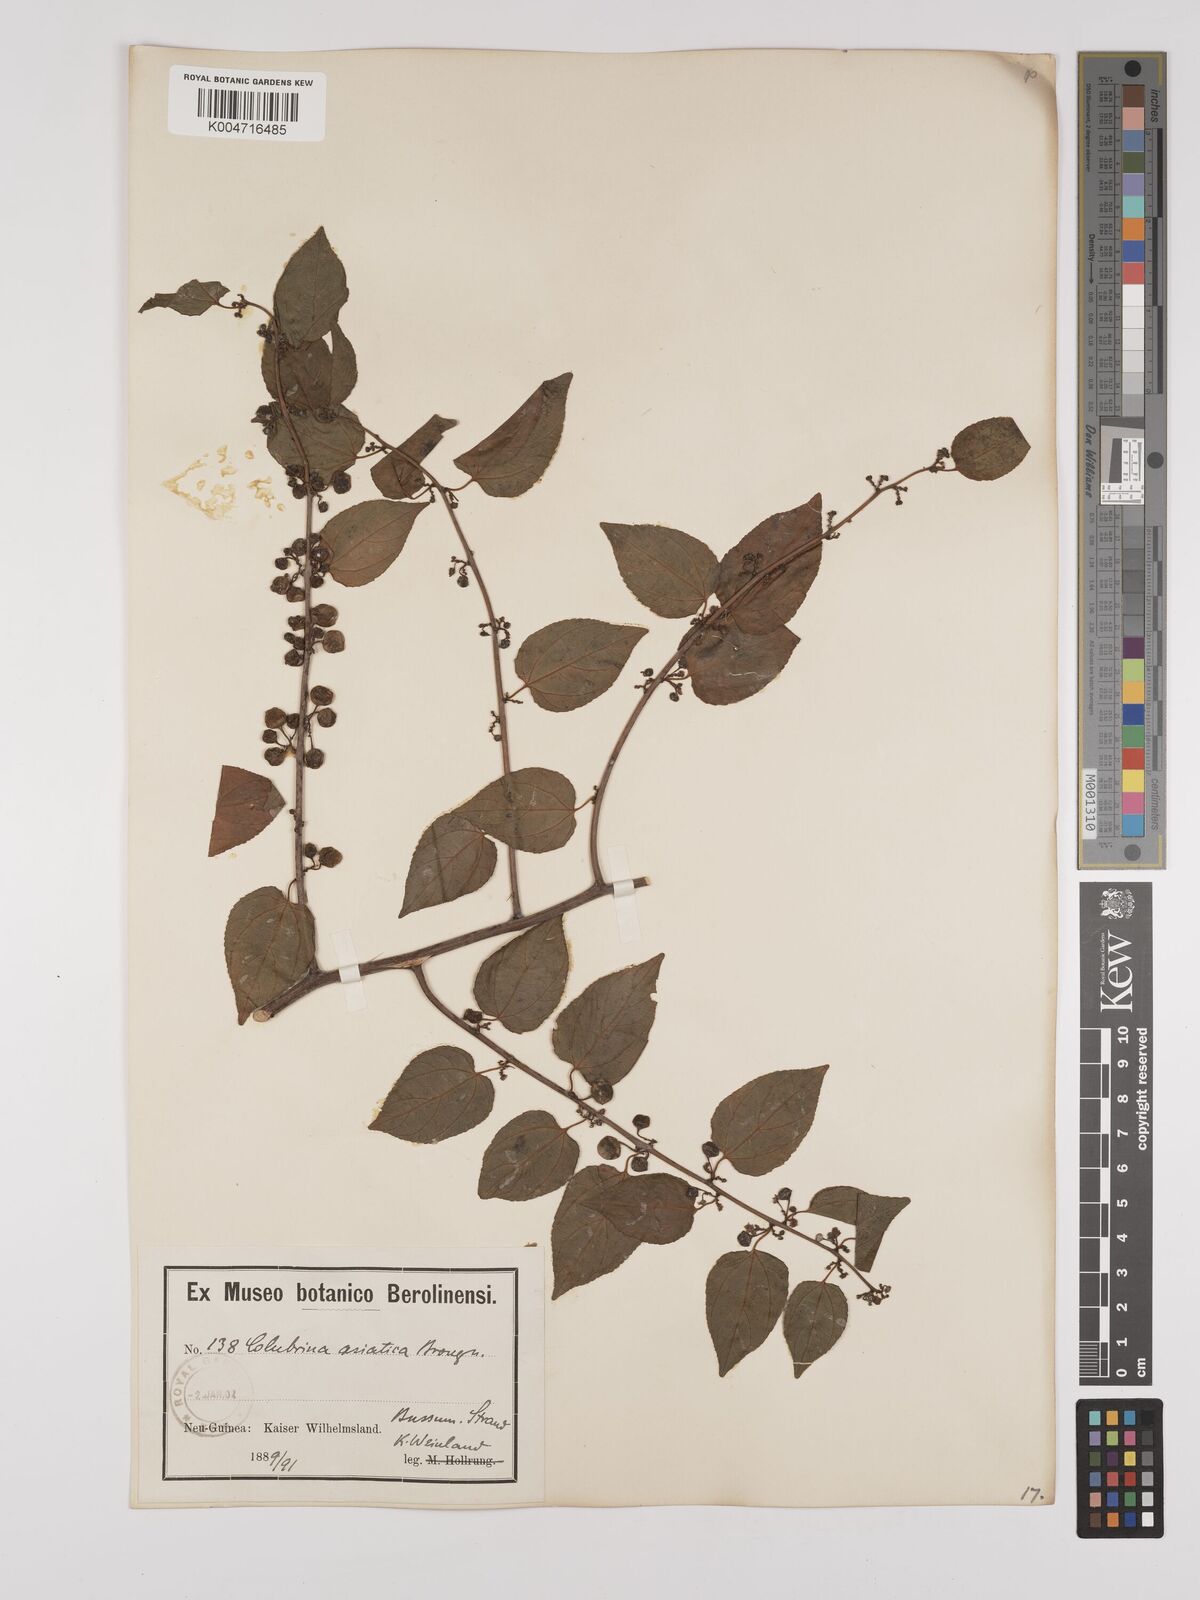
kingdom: Plantae
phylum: Tracheophyta
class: Magnoliopsida
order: Rosales
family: Rhamnaceae
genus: Colubrina
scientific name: Colubrina asiatica
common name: Asian nakedwood
